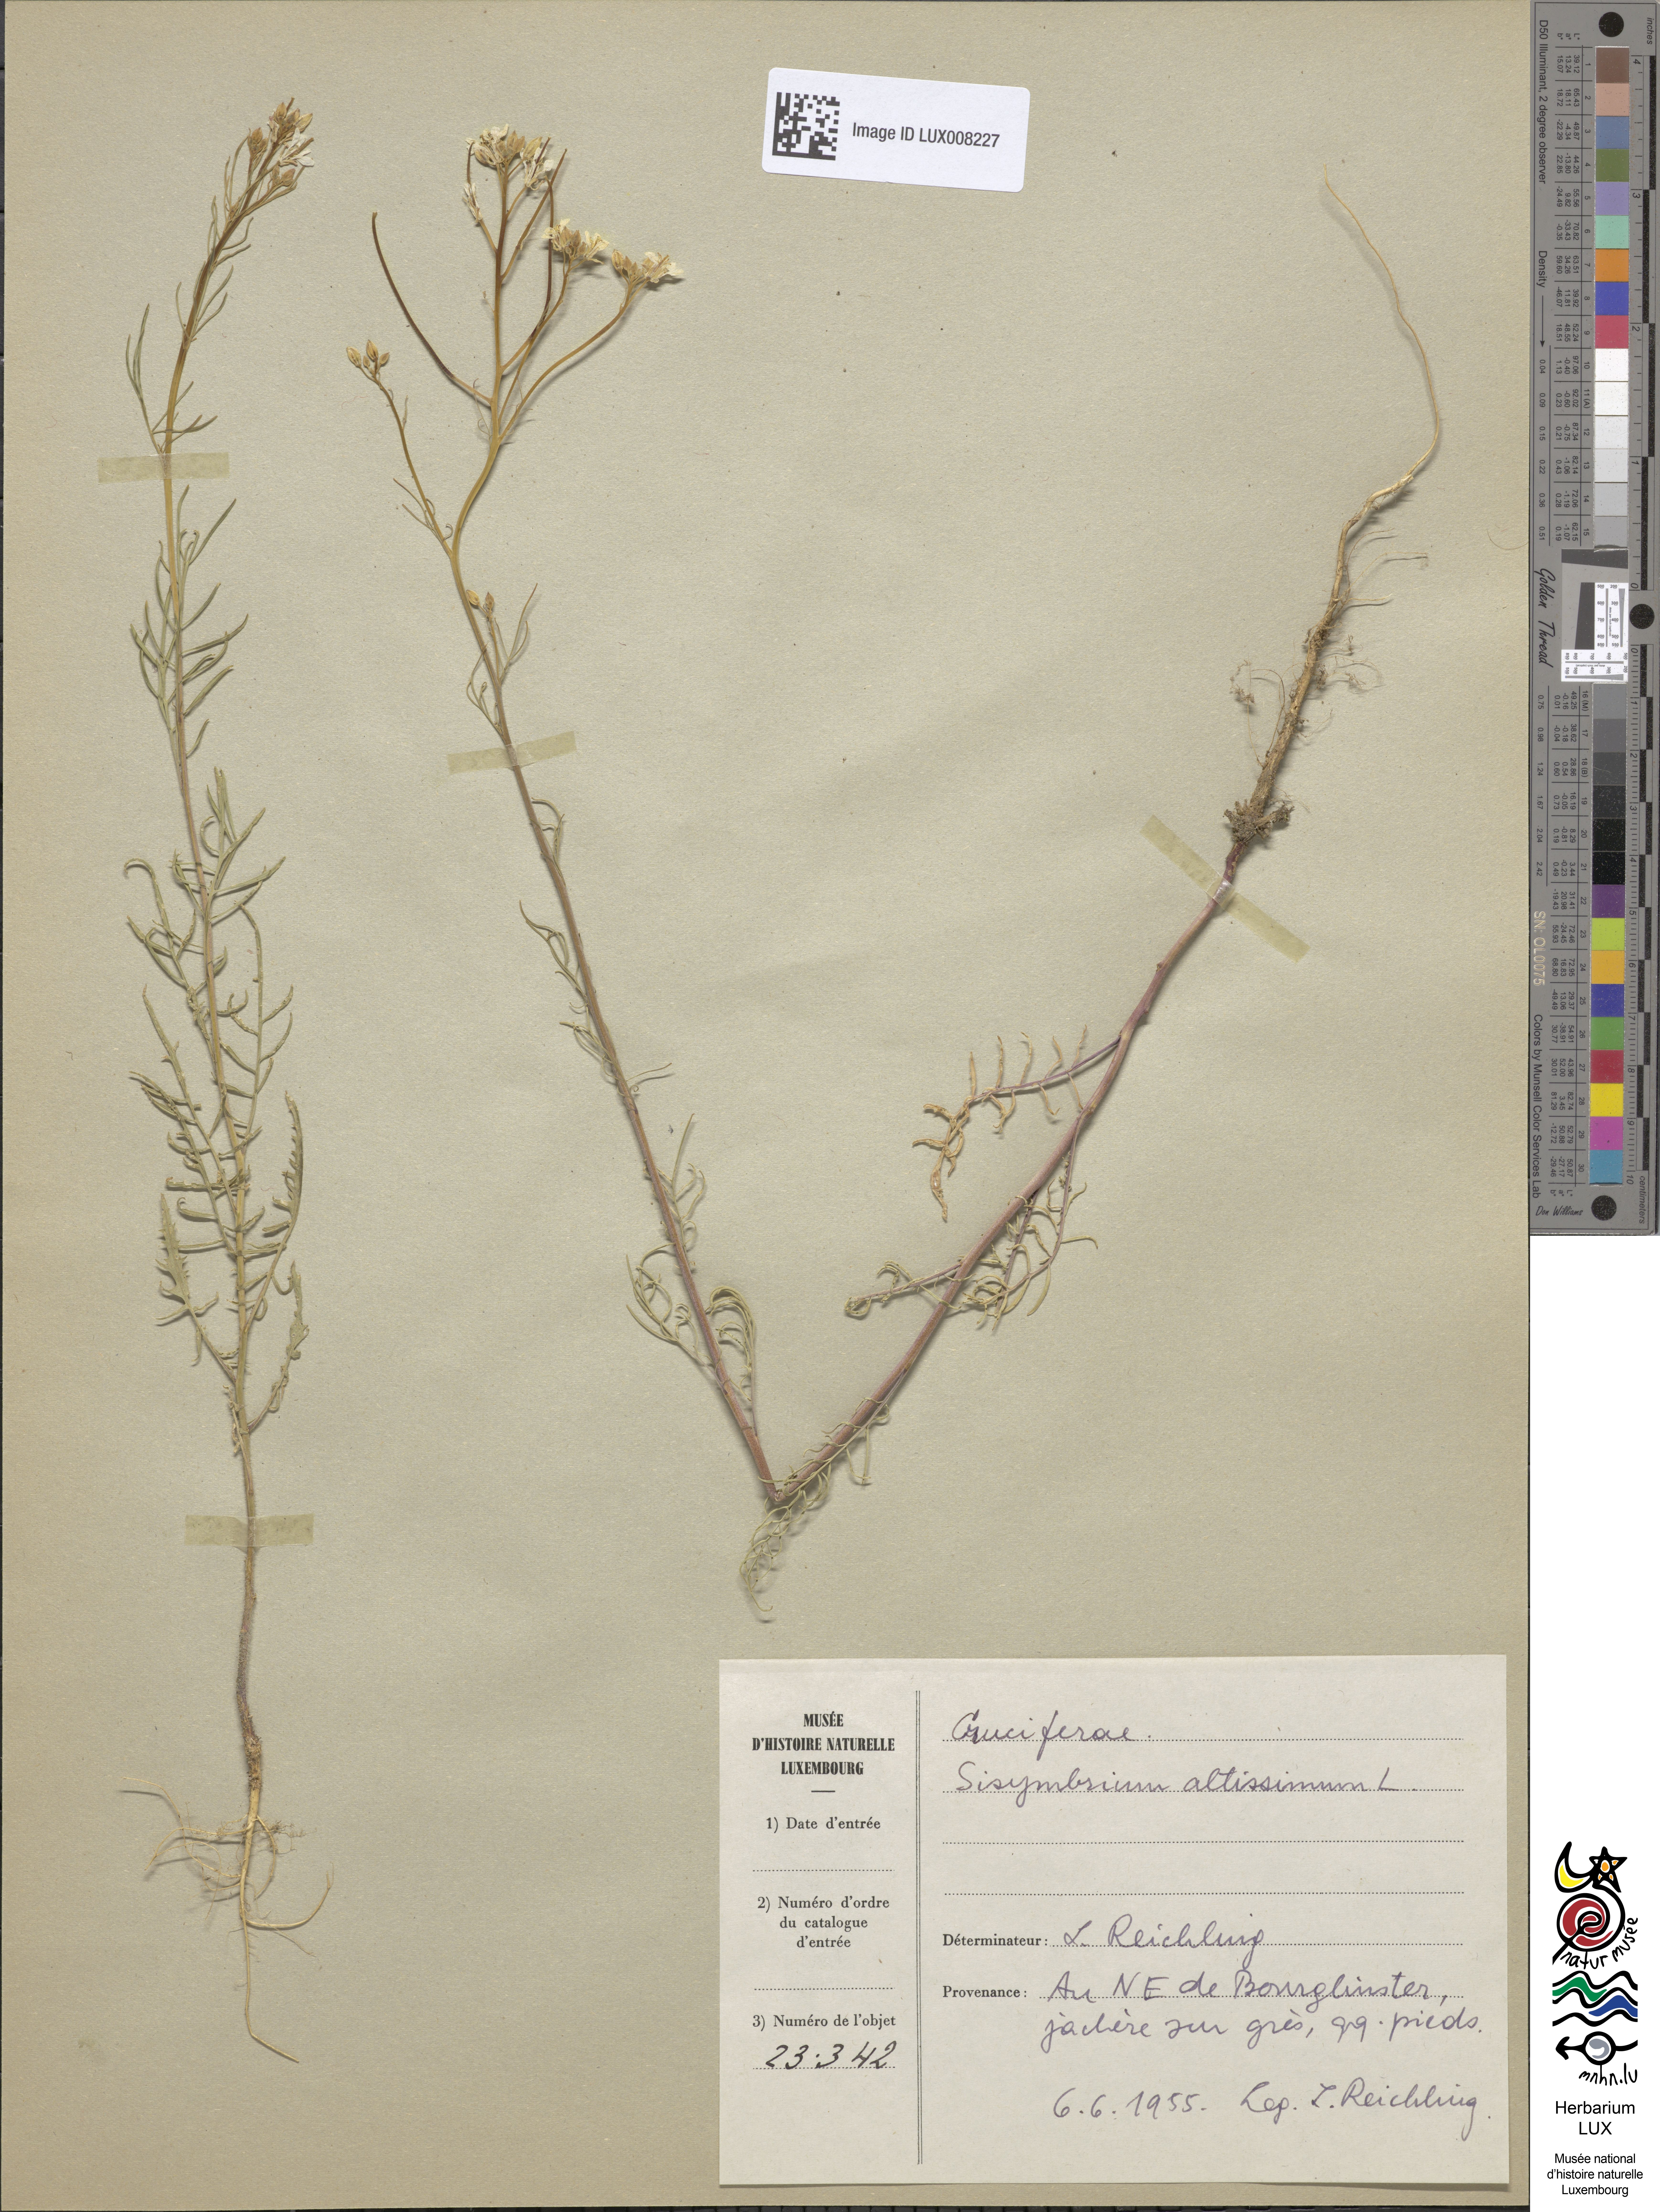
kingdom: Plantae
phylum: Tracheophyta
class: Magnoliopsida
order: Brassicales
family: Brassicaceae
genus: Sisymbrium
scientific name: Sisymbrium altissimum
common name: Tall rocket
